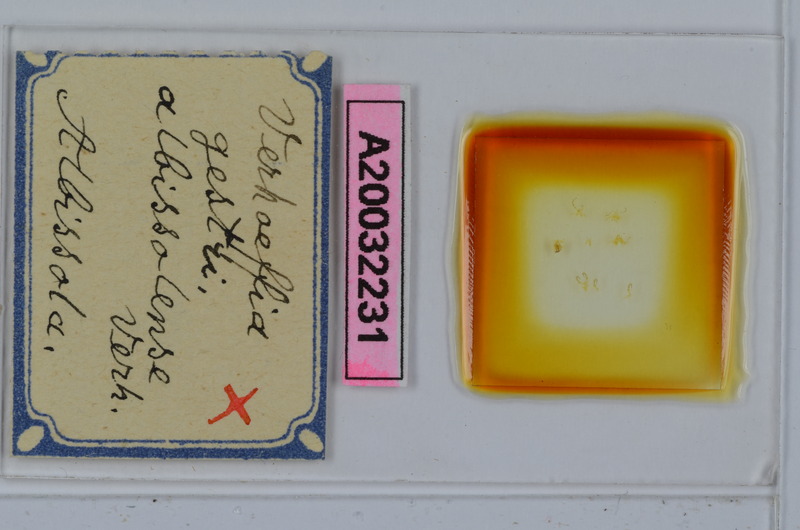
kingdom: Animalia
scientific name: Animalia
